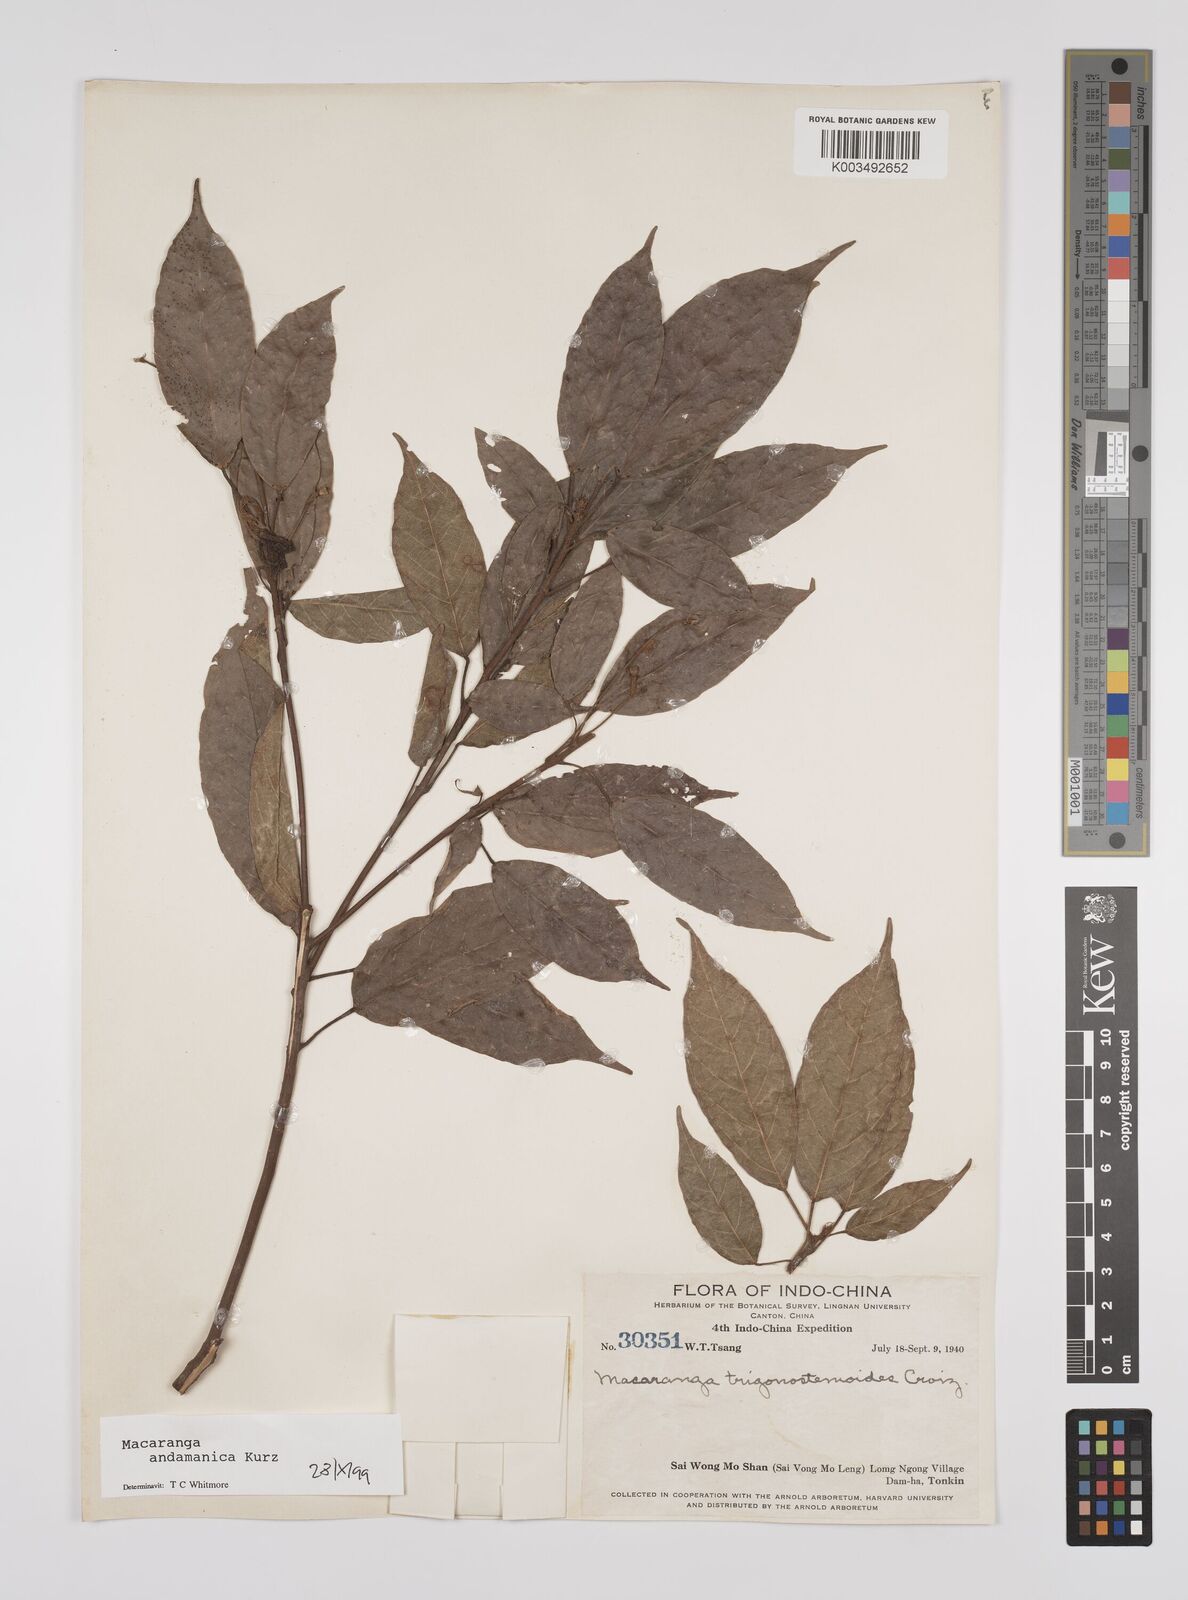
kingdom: Plantae
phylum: Tracheophyta
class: Magnoliopsida
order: Malpighiales
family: Euphorbiaceae
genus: Macaranga
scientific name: Macaranga andamanica
